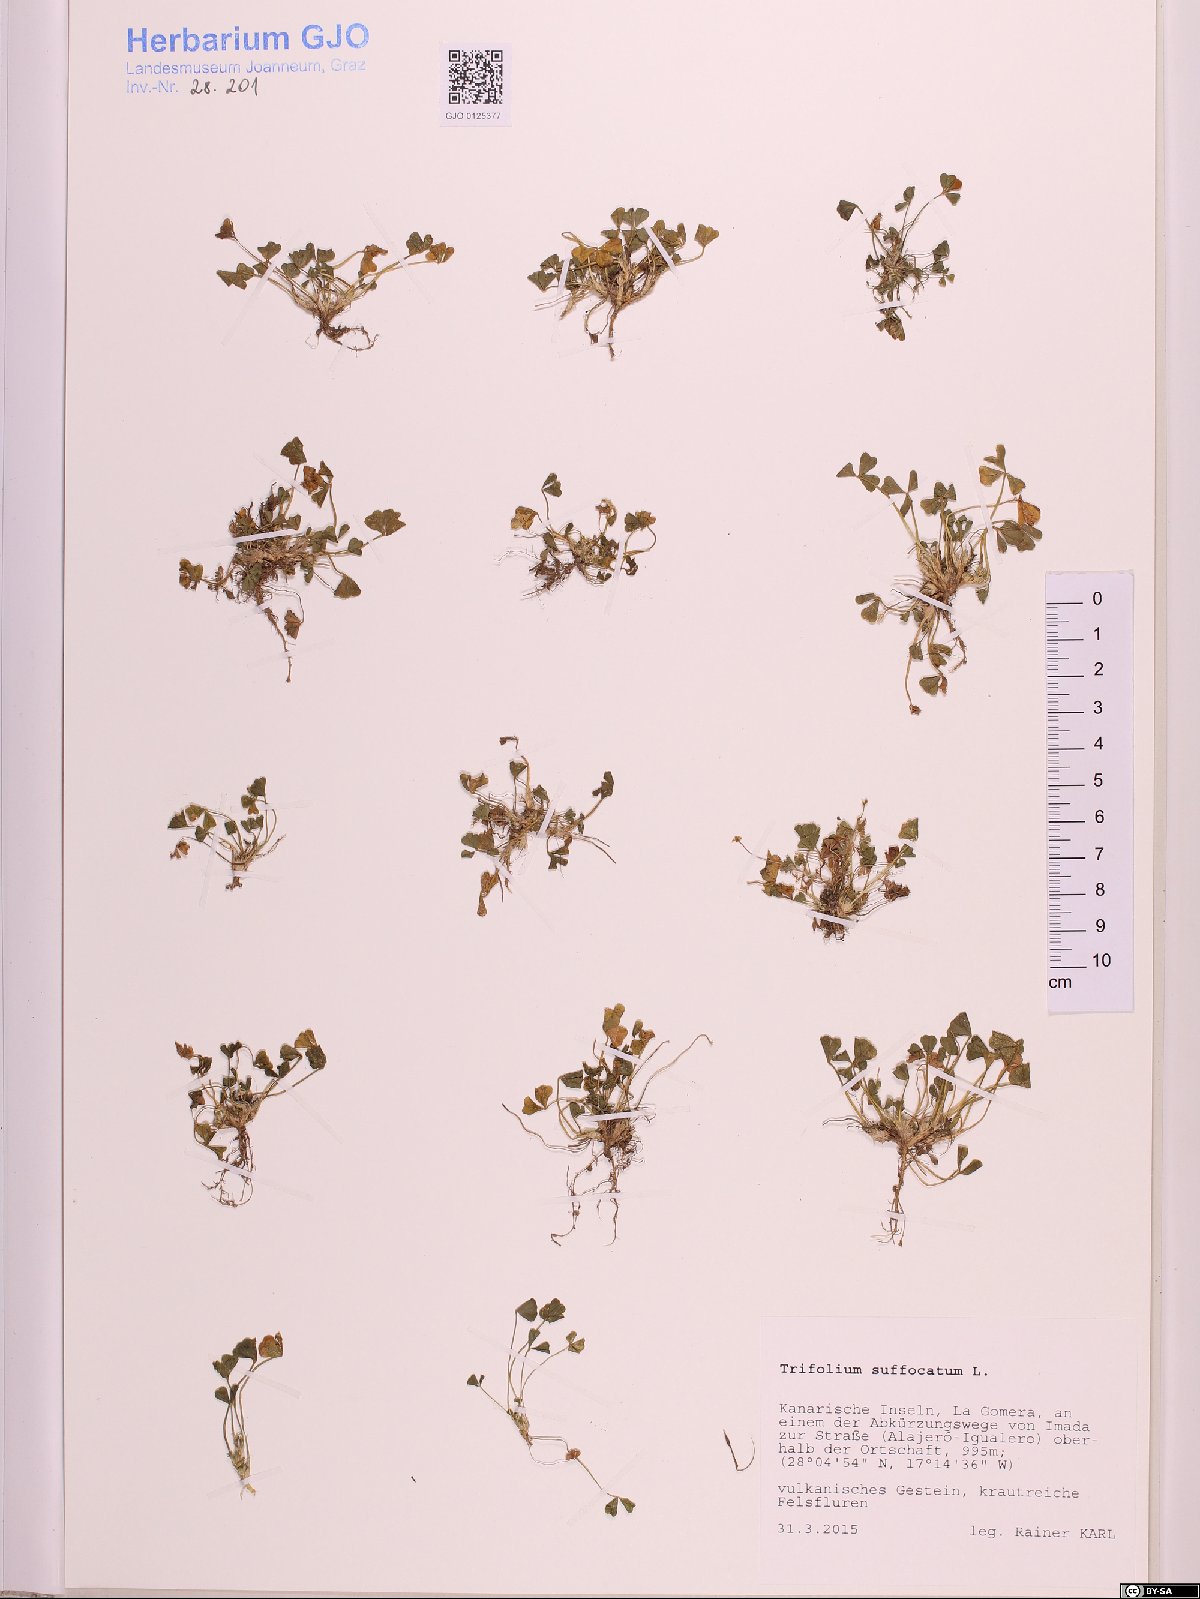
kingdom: Plantae
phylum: Tracheophyta
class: Magnoliopsida
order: Fabales
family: Fabaceae
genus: Trifolium
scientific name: Trifolium suffocatum
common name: Suffocated clover
